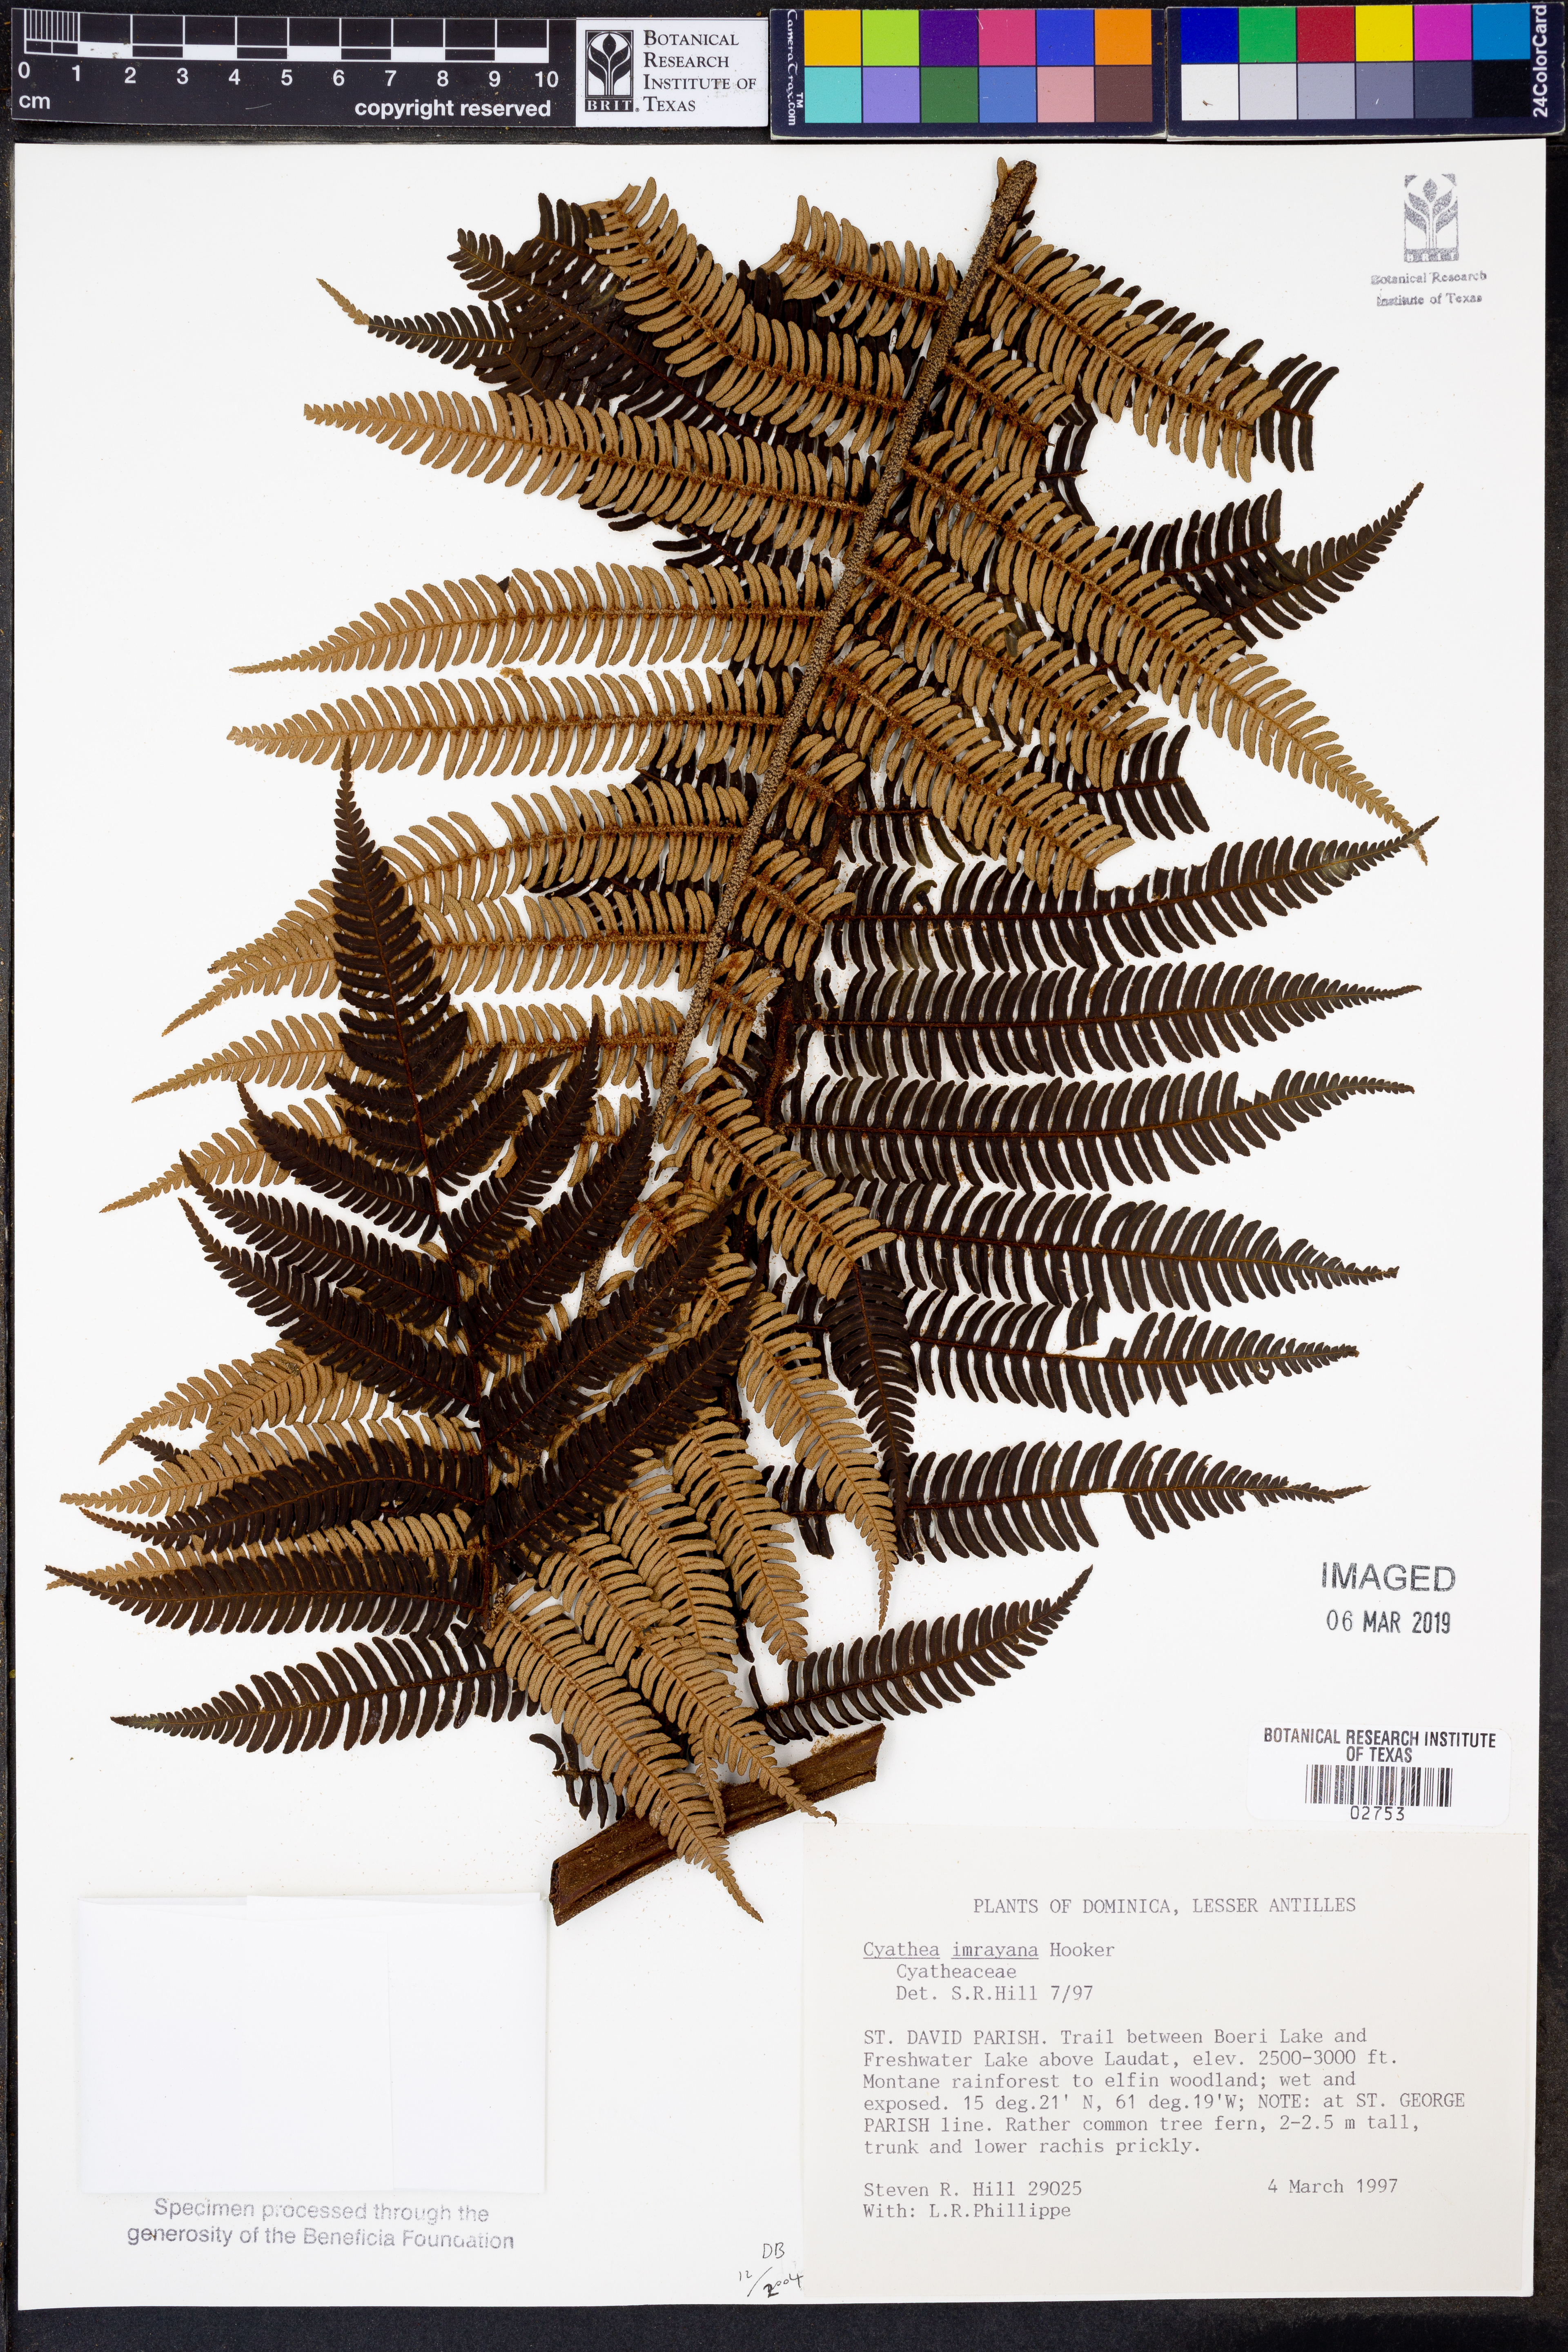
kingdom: Plantae
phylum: Tracheophyta
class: Polypodiopsida
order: Cyatheales
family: Cyatheaceae
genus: Cyathea
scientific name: Cyathea imrayana
